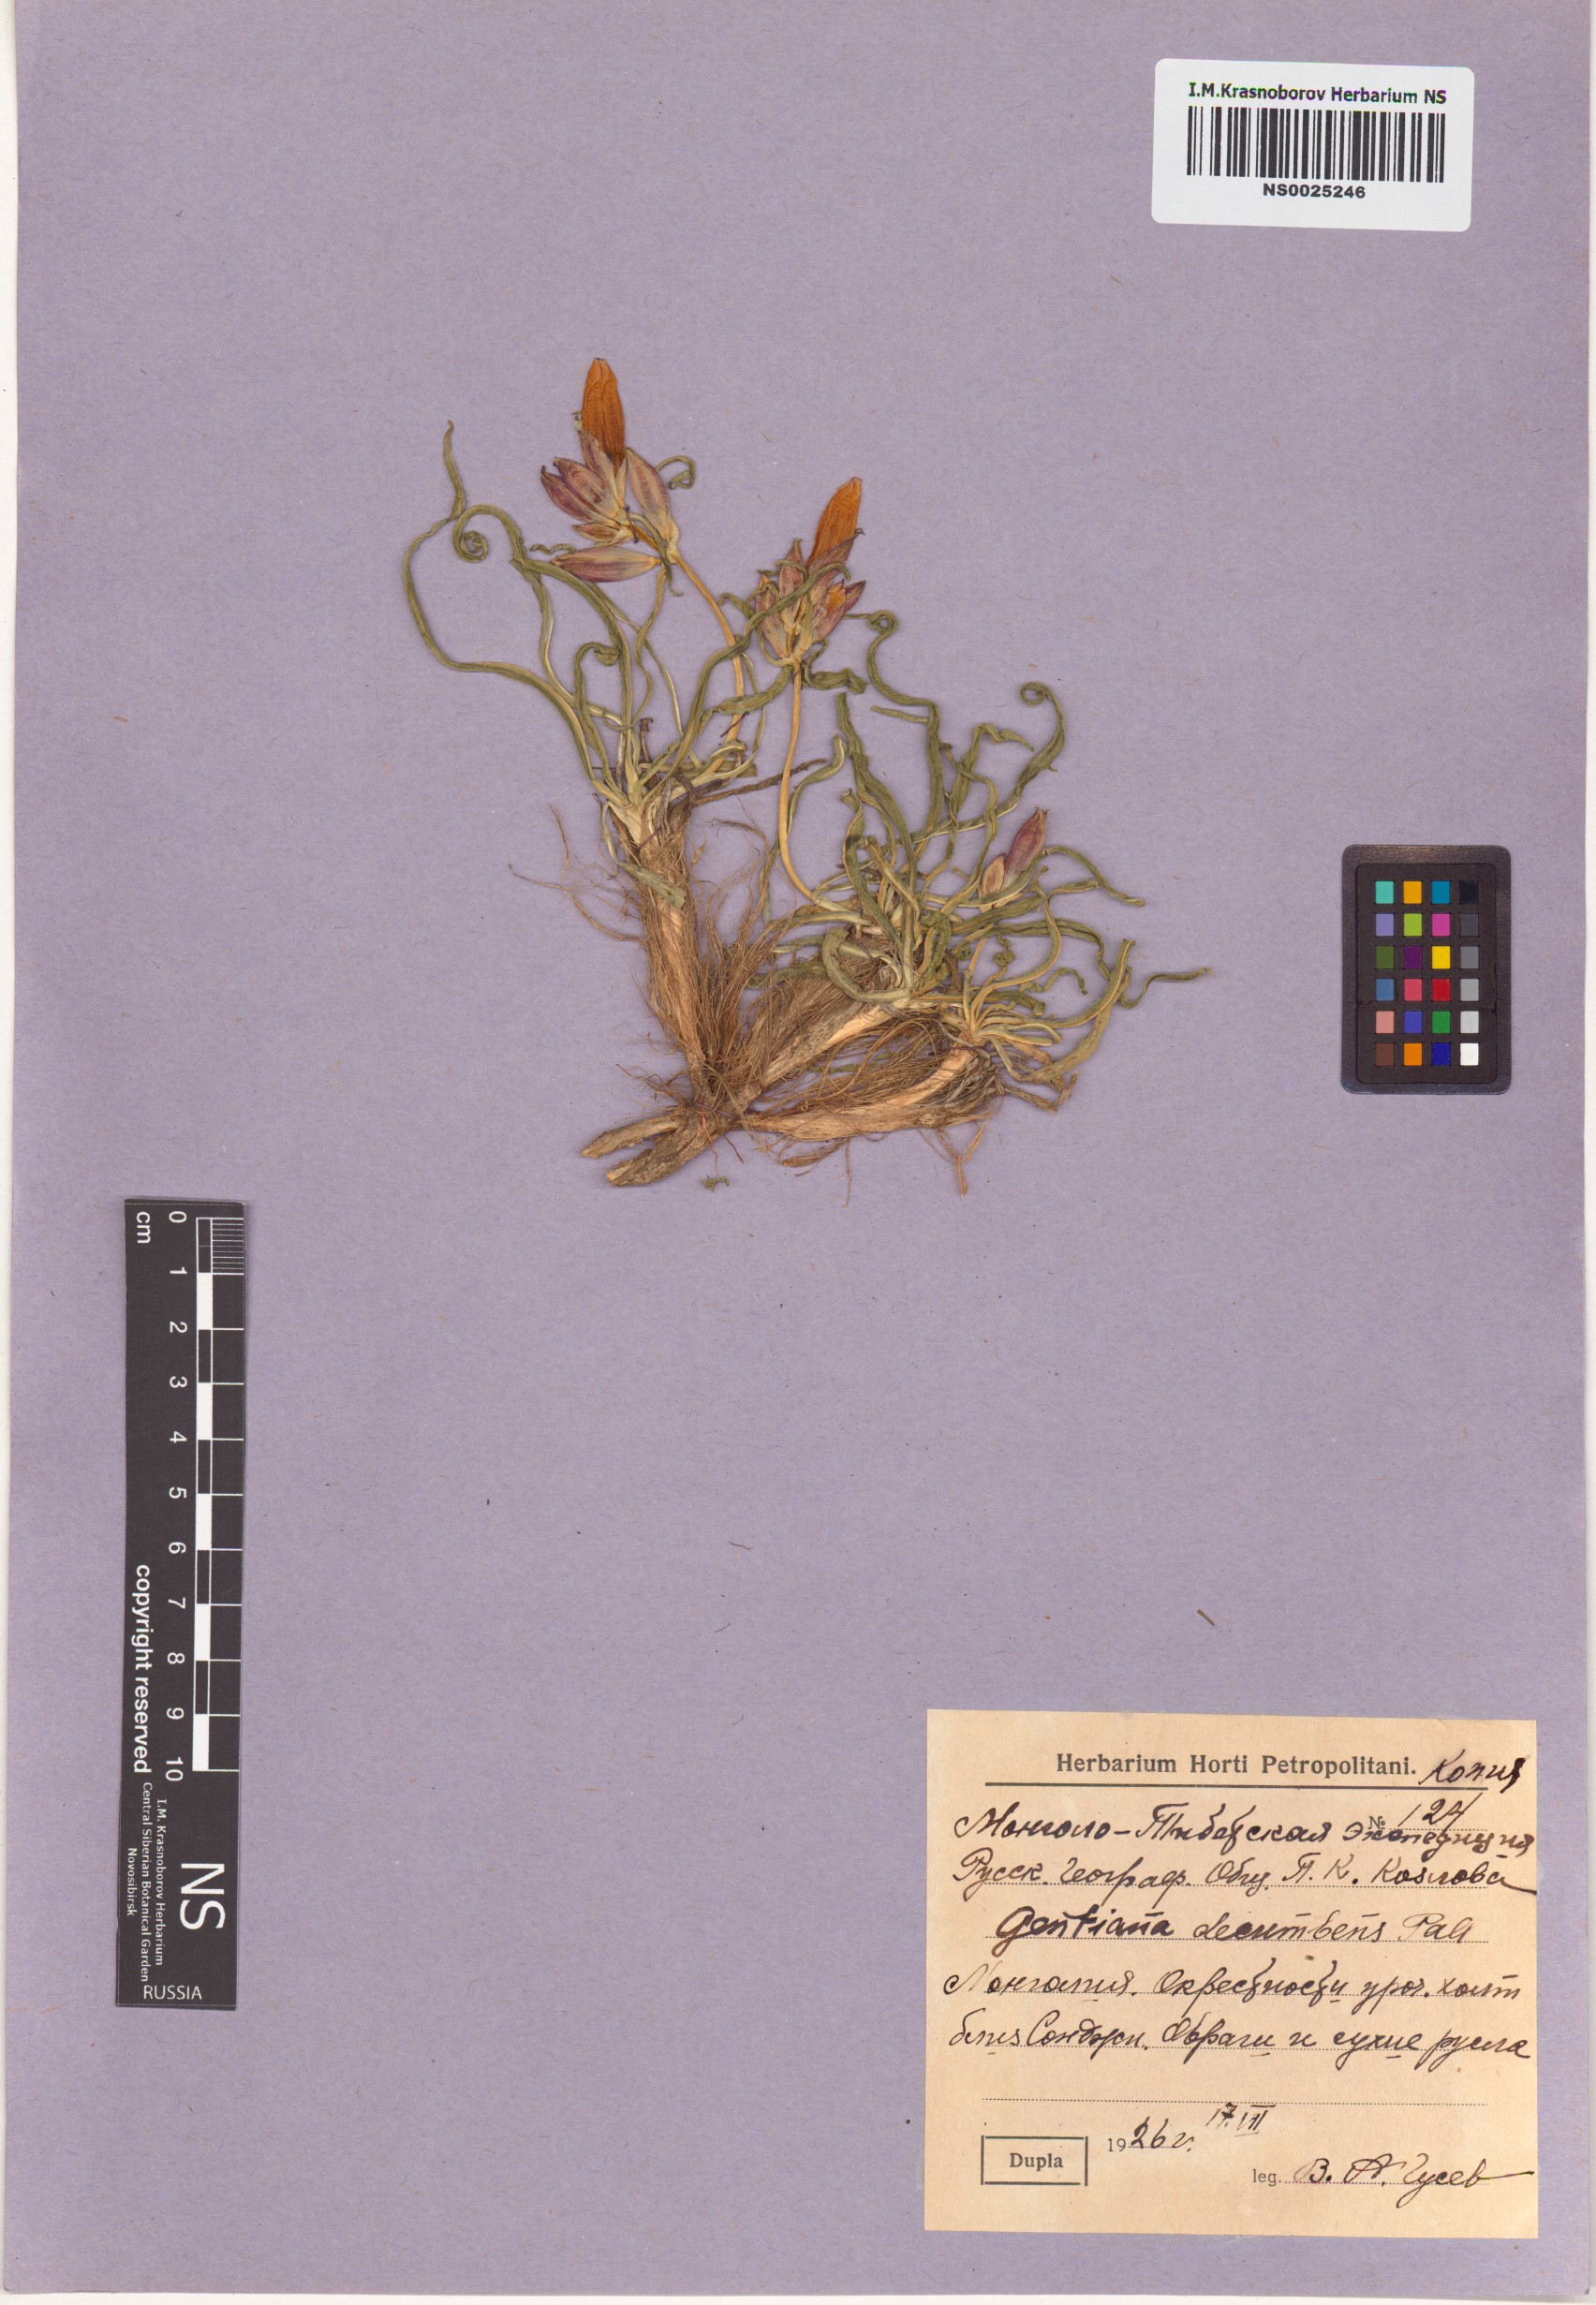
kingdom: Plantae
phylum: Tracheophyta
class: Magnoliopsida
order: Gentianales
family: Gentianaceae
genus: Gentiana
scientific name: Gentiana decumbens
